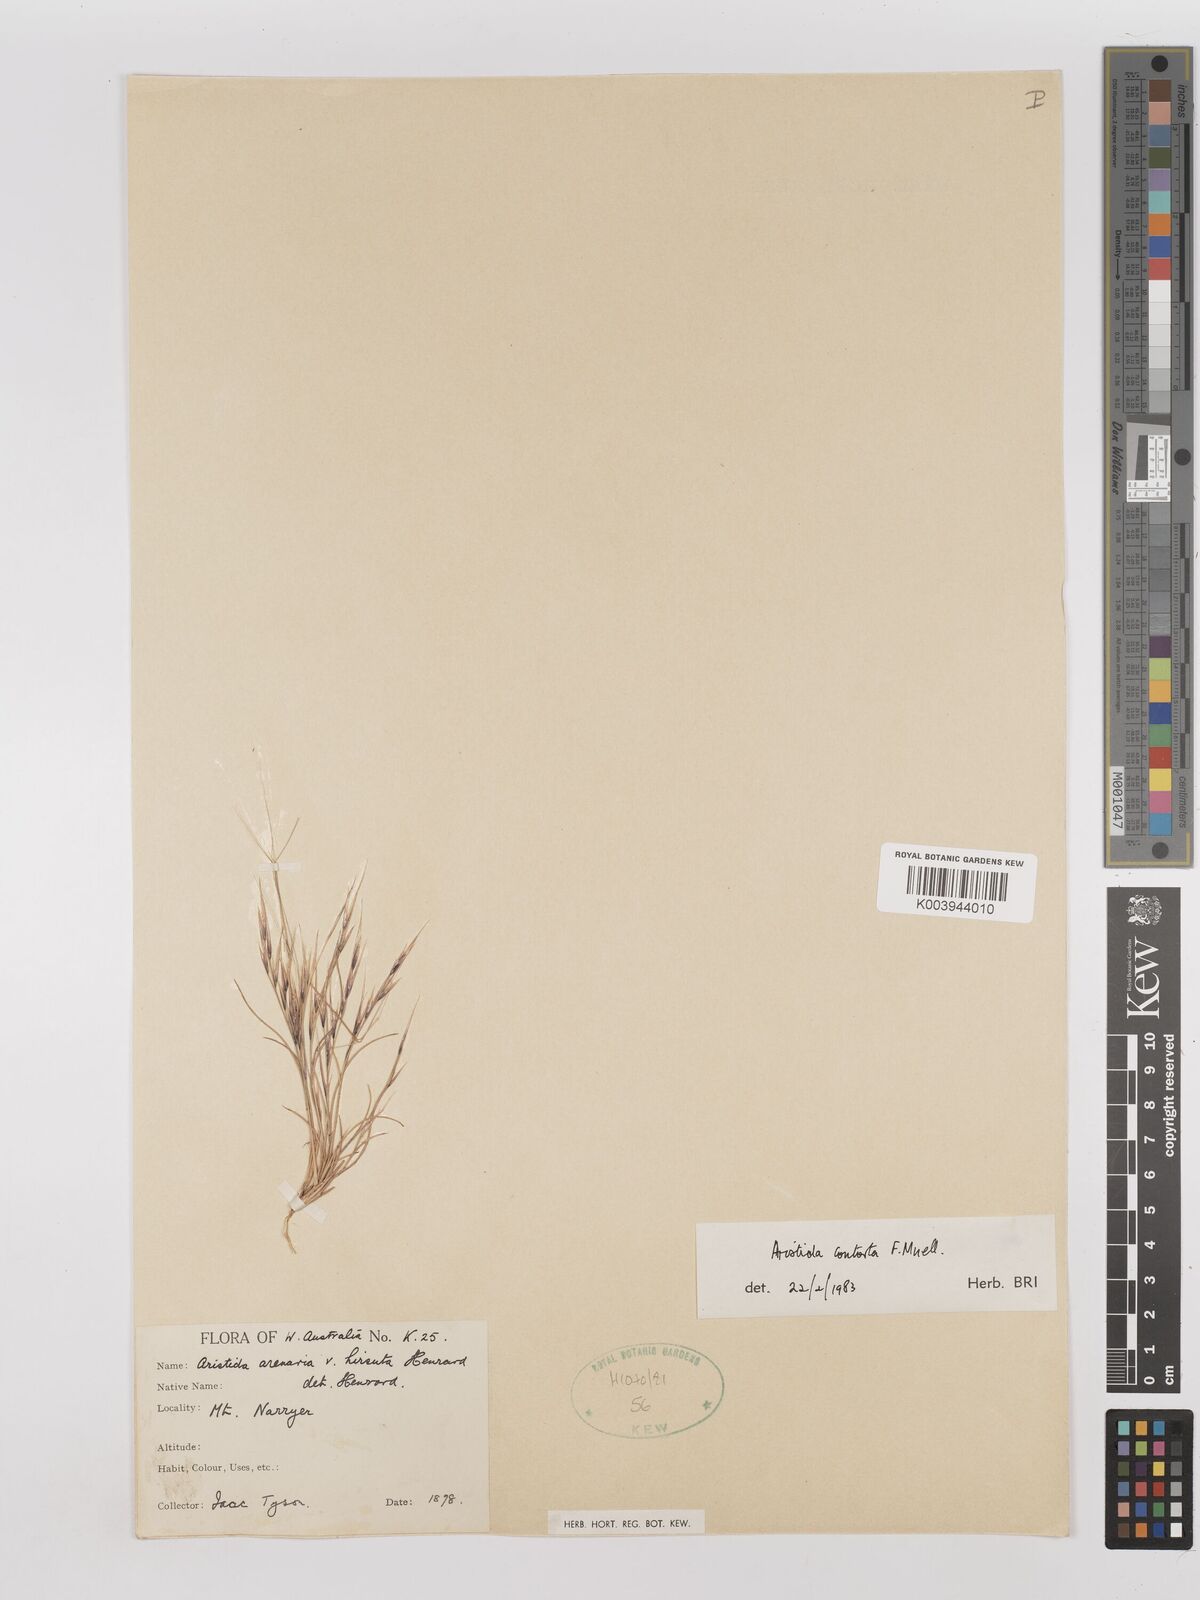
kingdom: Plantae
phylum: Tracheophyta
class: Liliopsida
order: Poales
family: Poaceae
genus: Aristida
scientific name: Aristida contorta
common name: Bunch kerosene grass
